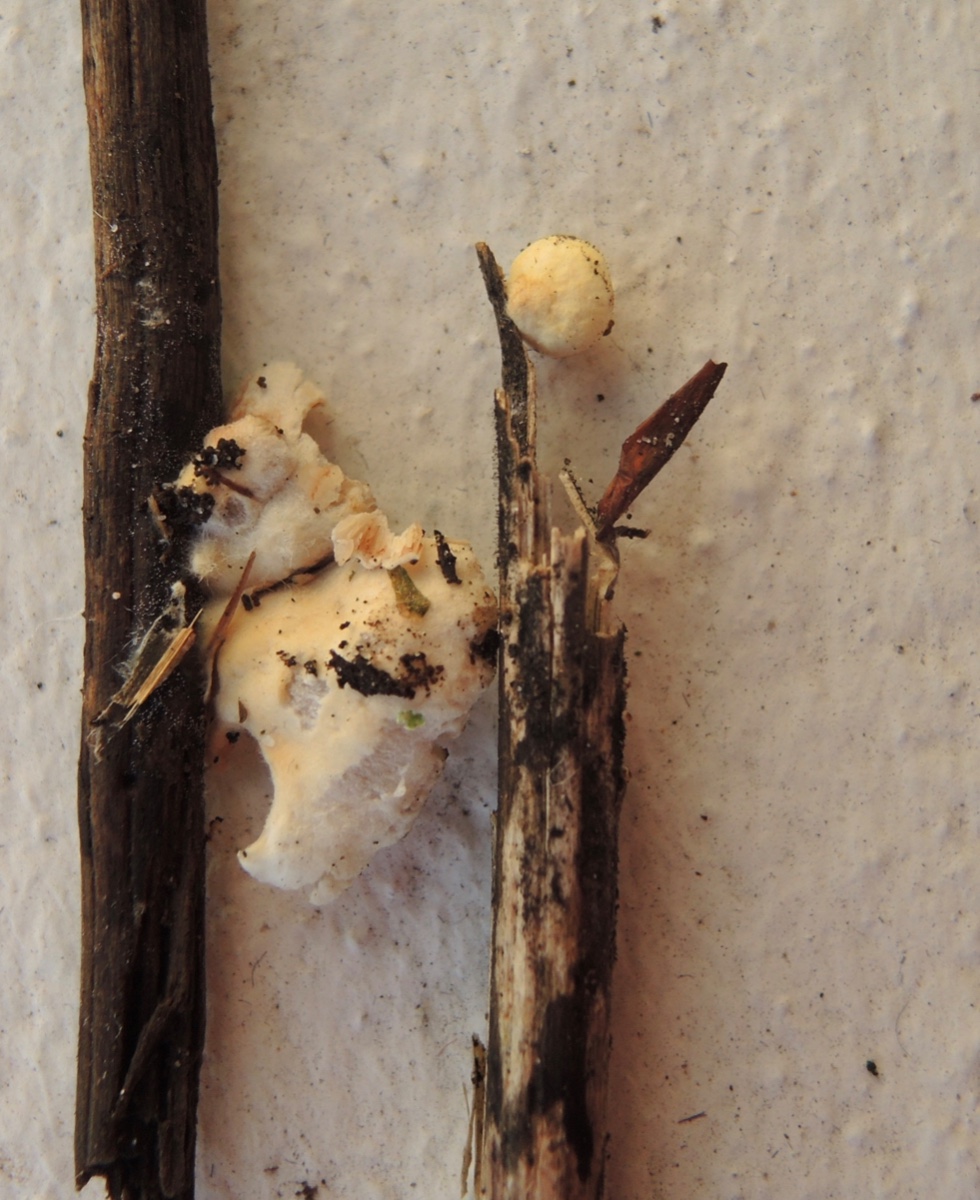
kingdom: Fungi
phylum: Basidiomycota
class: Agaricomycetes
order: Agaricales
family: Crepidotaceae
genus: Crepidotus
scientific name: Crepidotus luteolus
